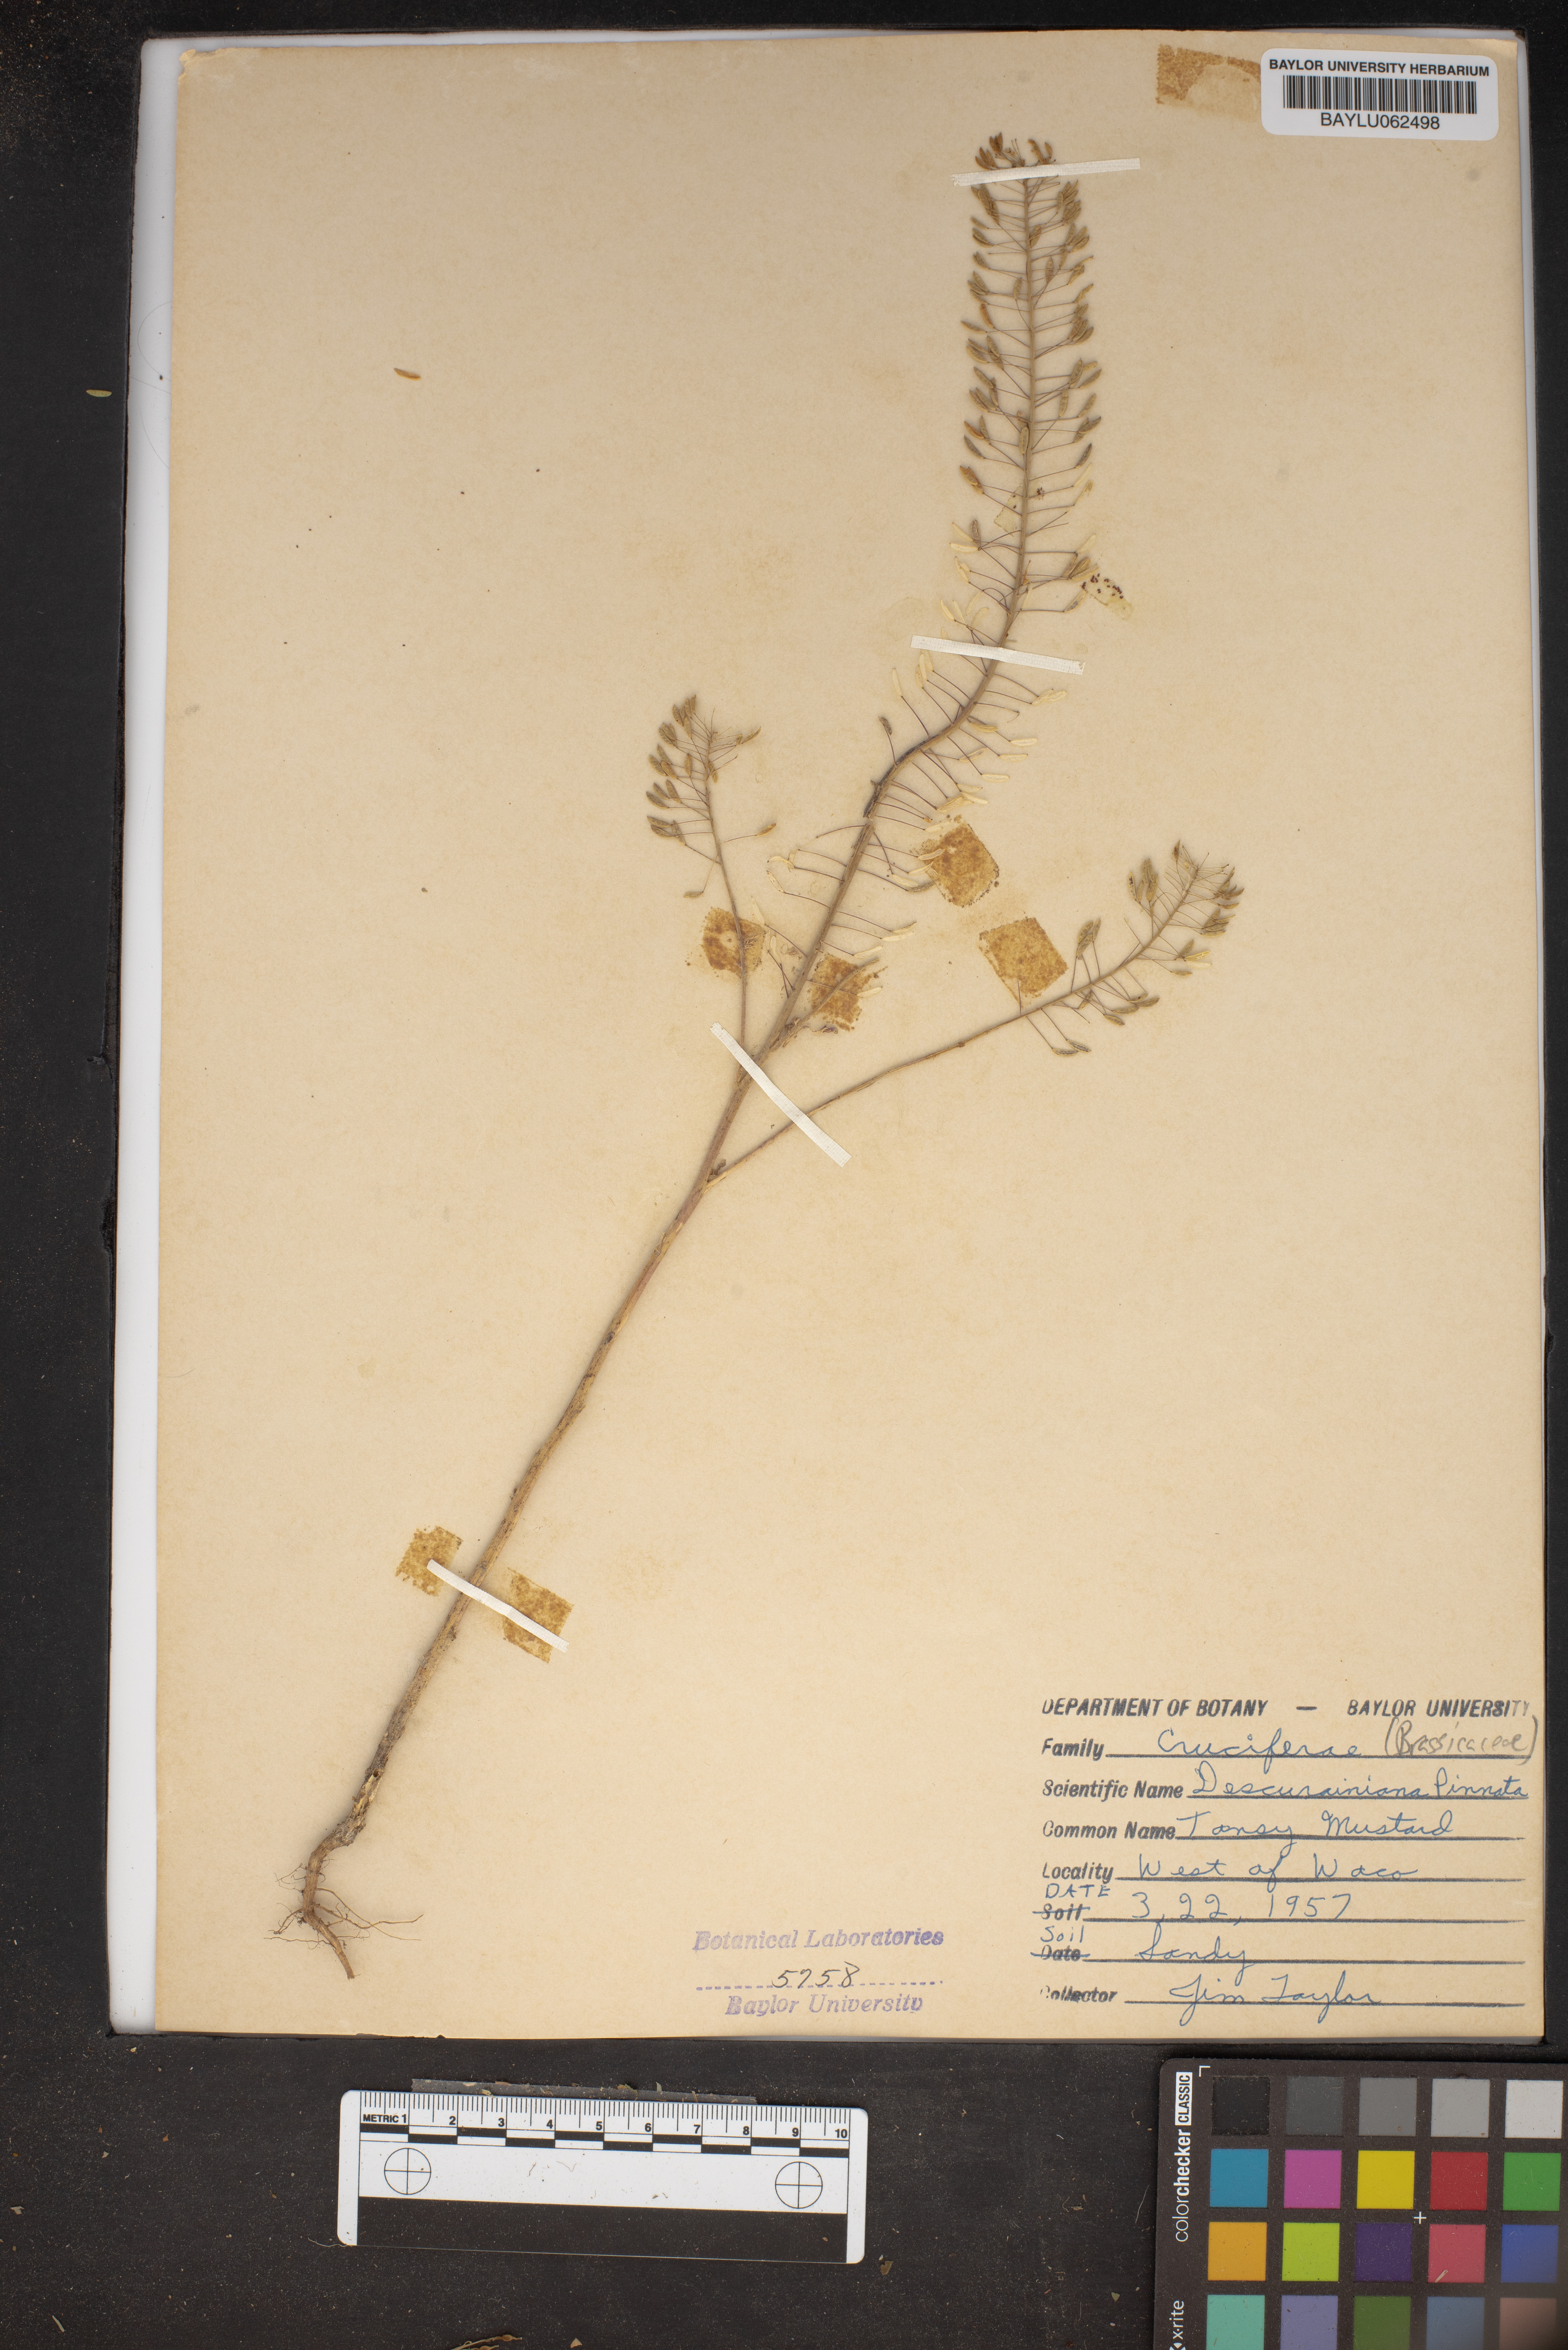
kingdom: Plantae
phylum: Tracheophyta
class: Magnoliopsida
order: Brassicales
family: Brassicaceae
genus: Descurainia
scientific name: Descurainia pinnata
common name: Western tansy mustard
